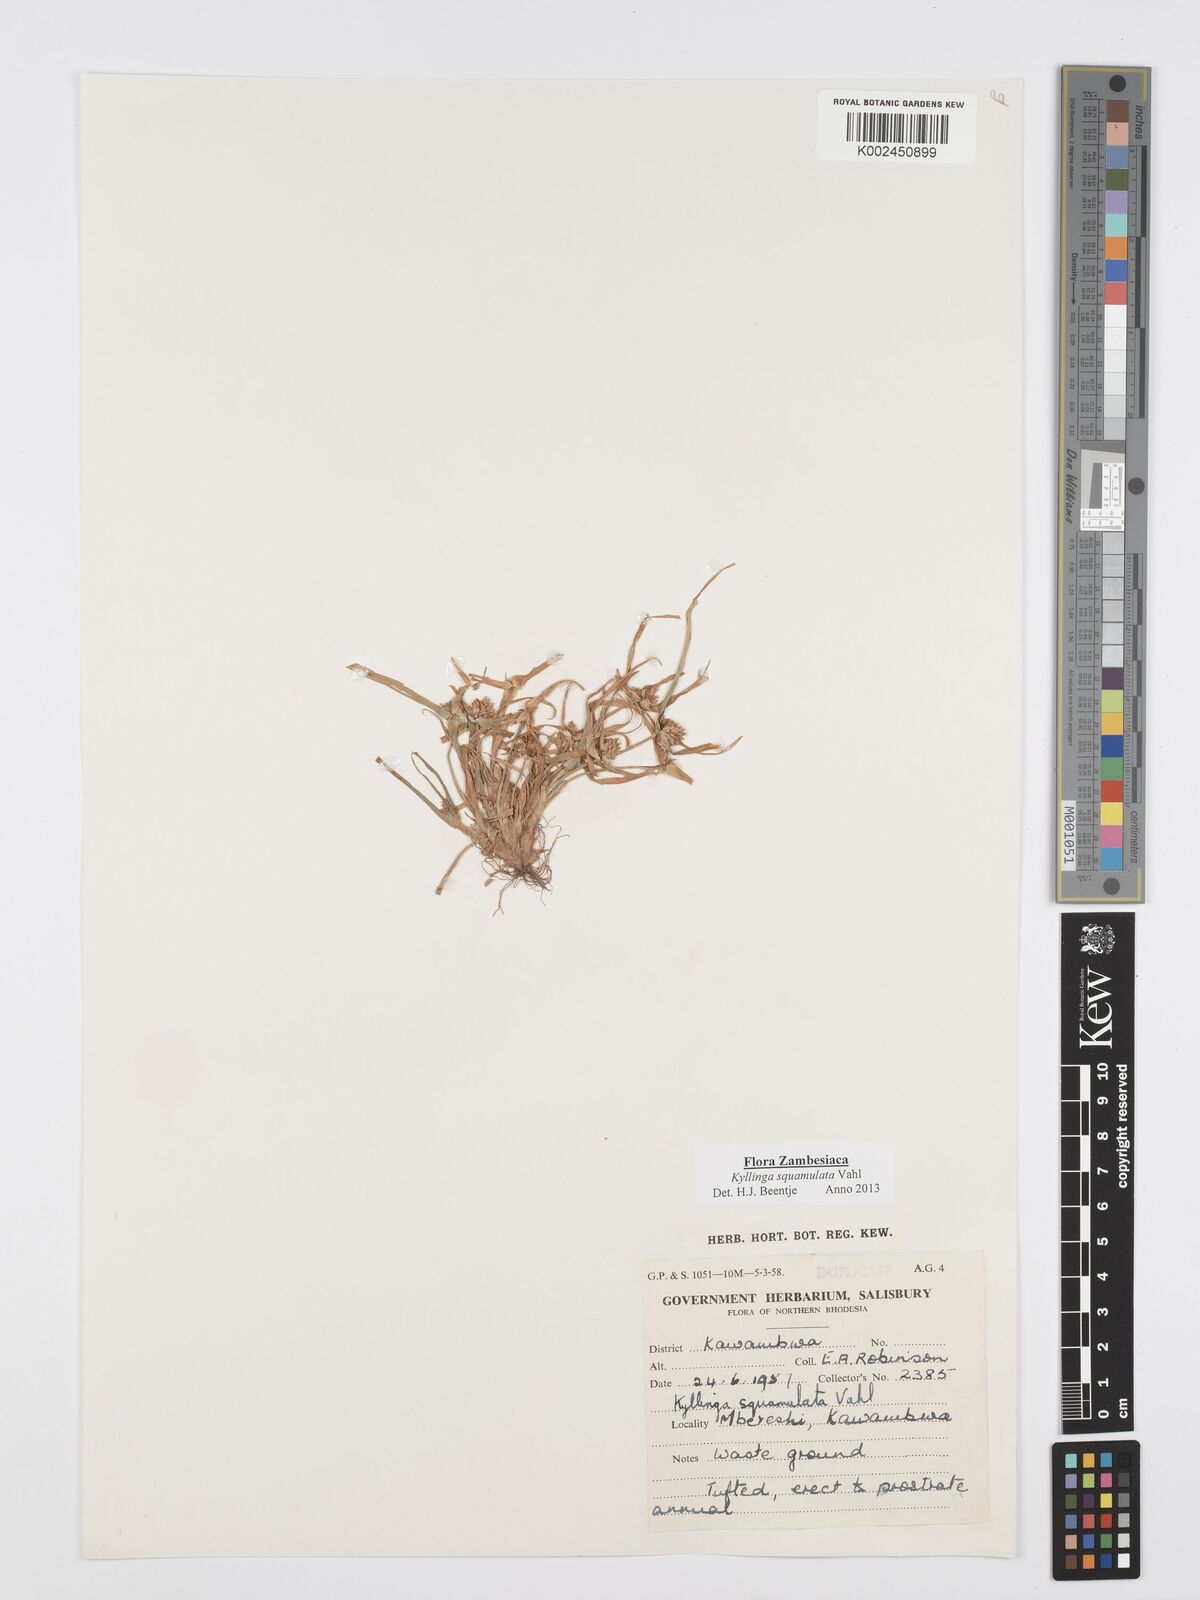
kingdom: Plantae
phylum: Tracheophyta
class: Liliopsida
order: Poales
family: Cyperaceae
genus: Cyperus
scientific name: Cyperus distans
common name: Slender cyperus
